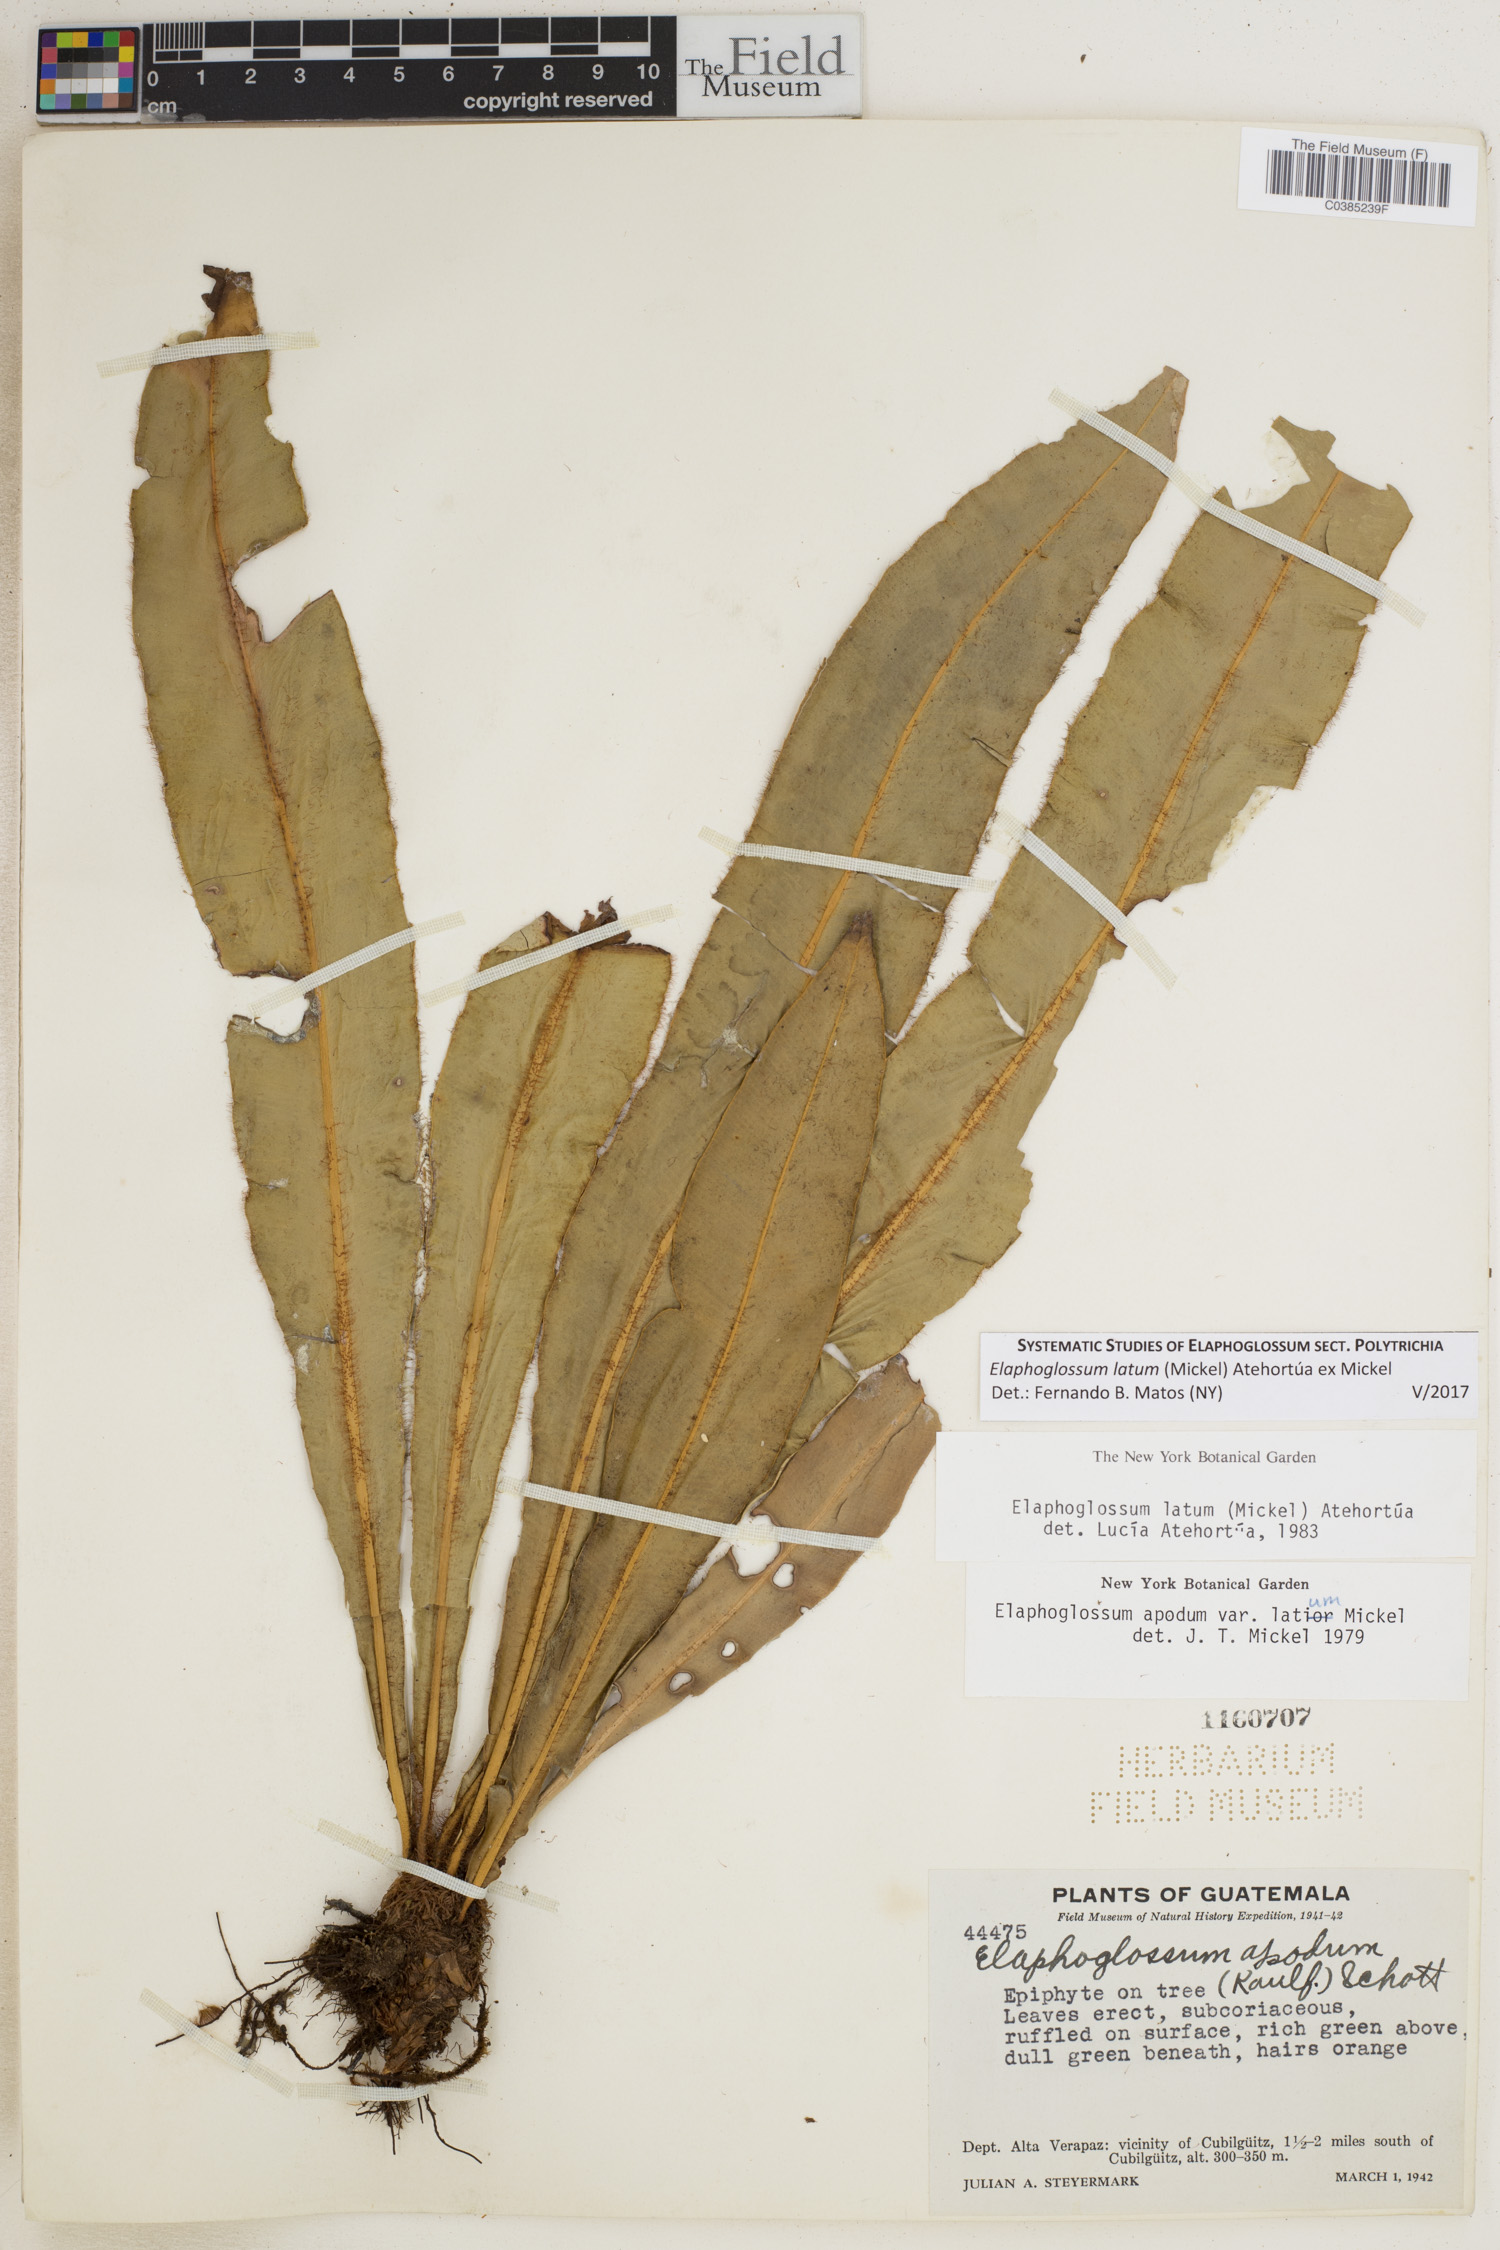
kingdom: Plantae
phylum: Tracheophyta
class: Polypodiopsida
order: Polypodiales
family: Dryopteridaceae
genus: Elaphoglossum
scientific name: Elaphoglossum latum
